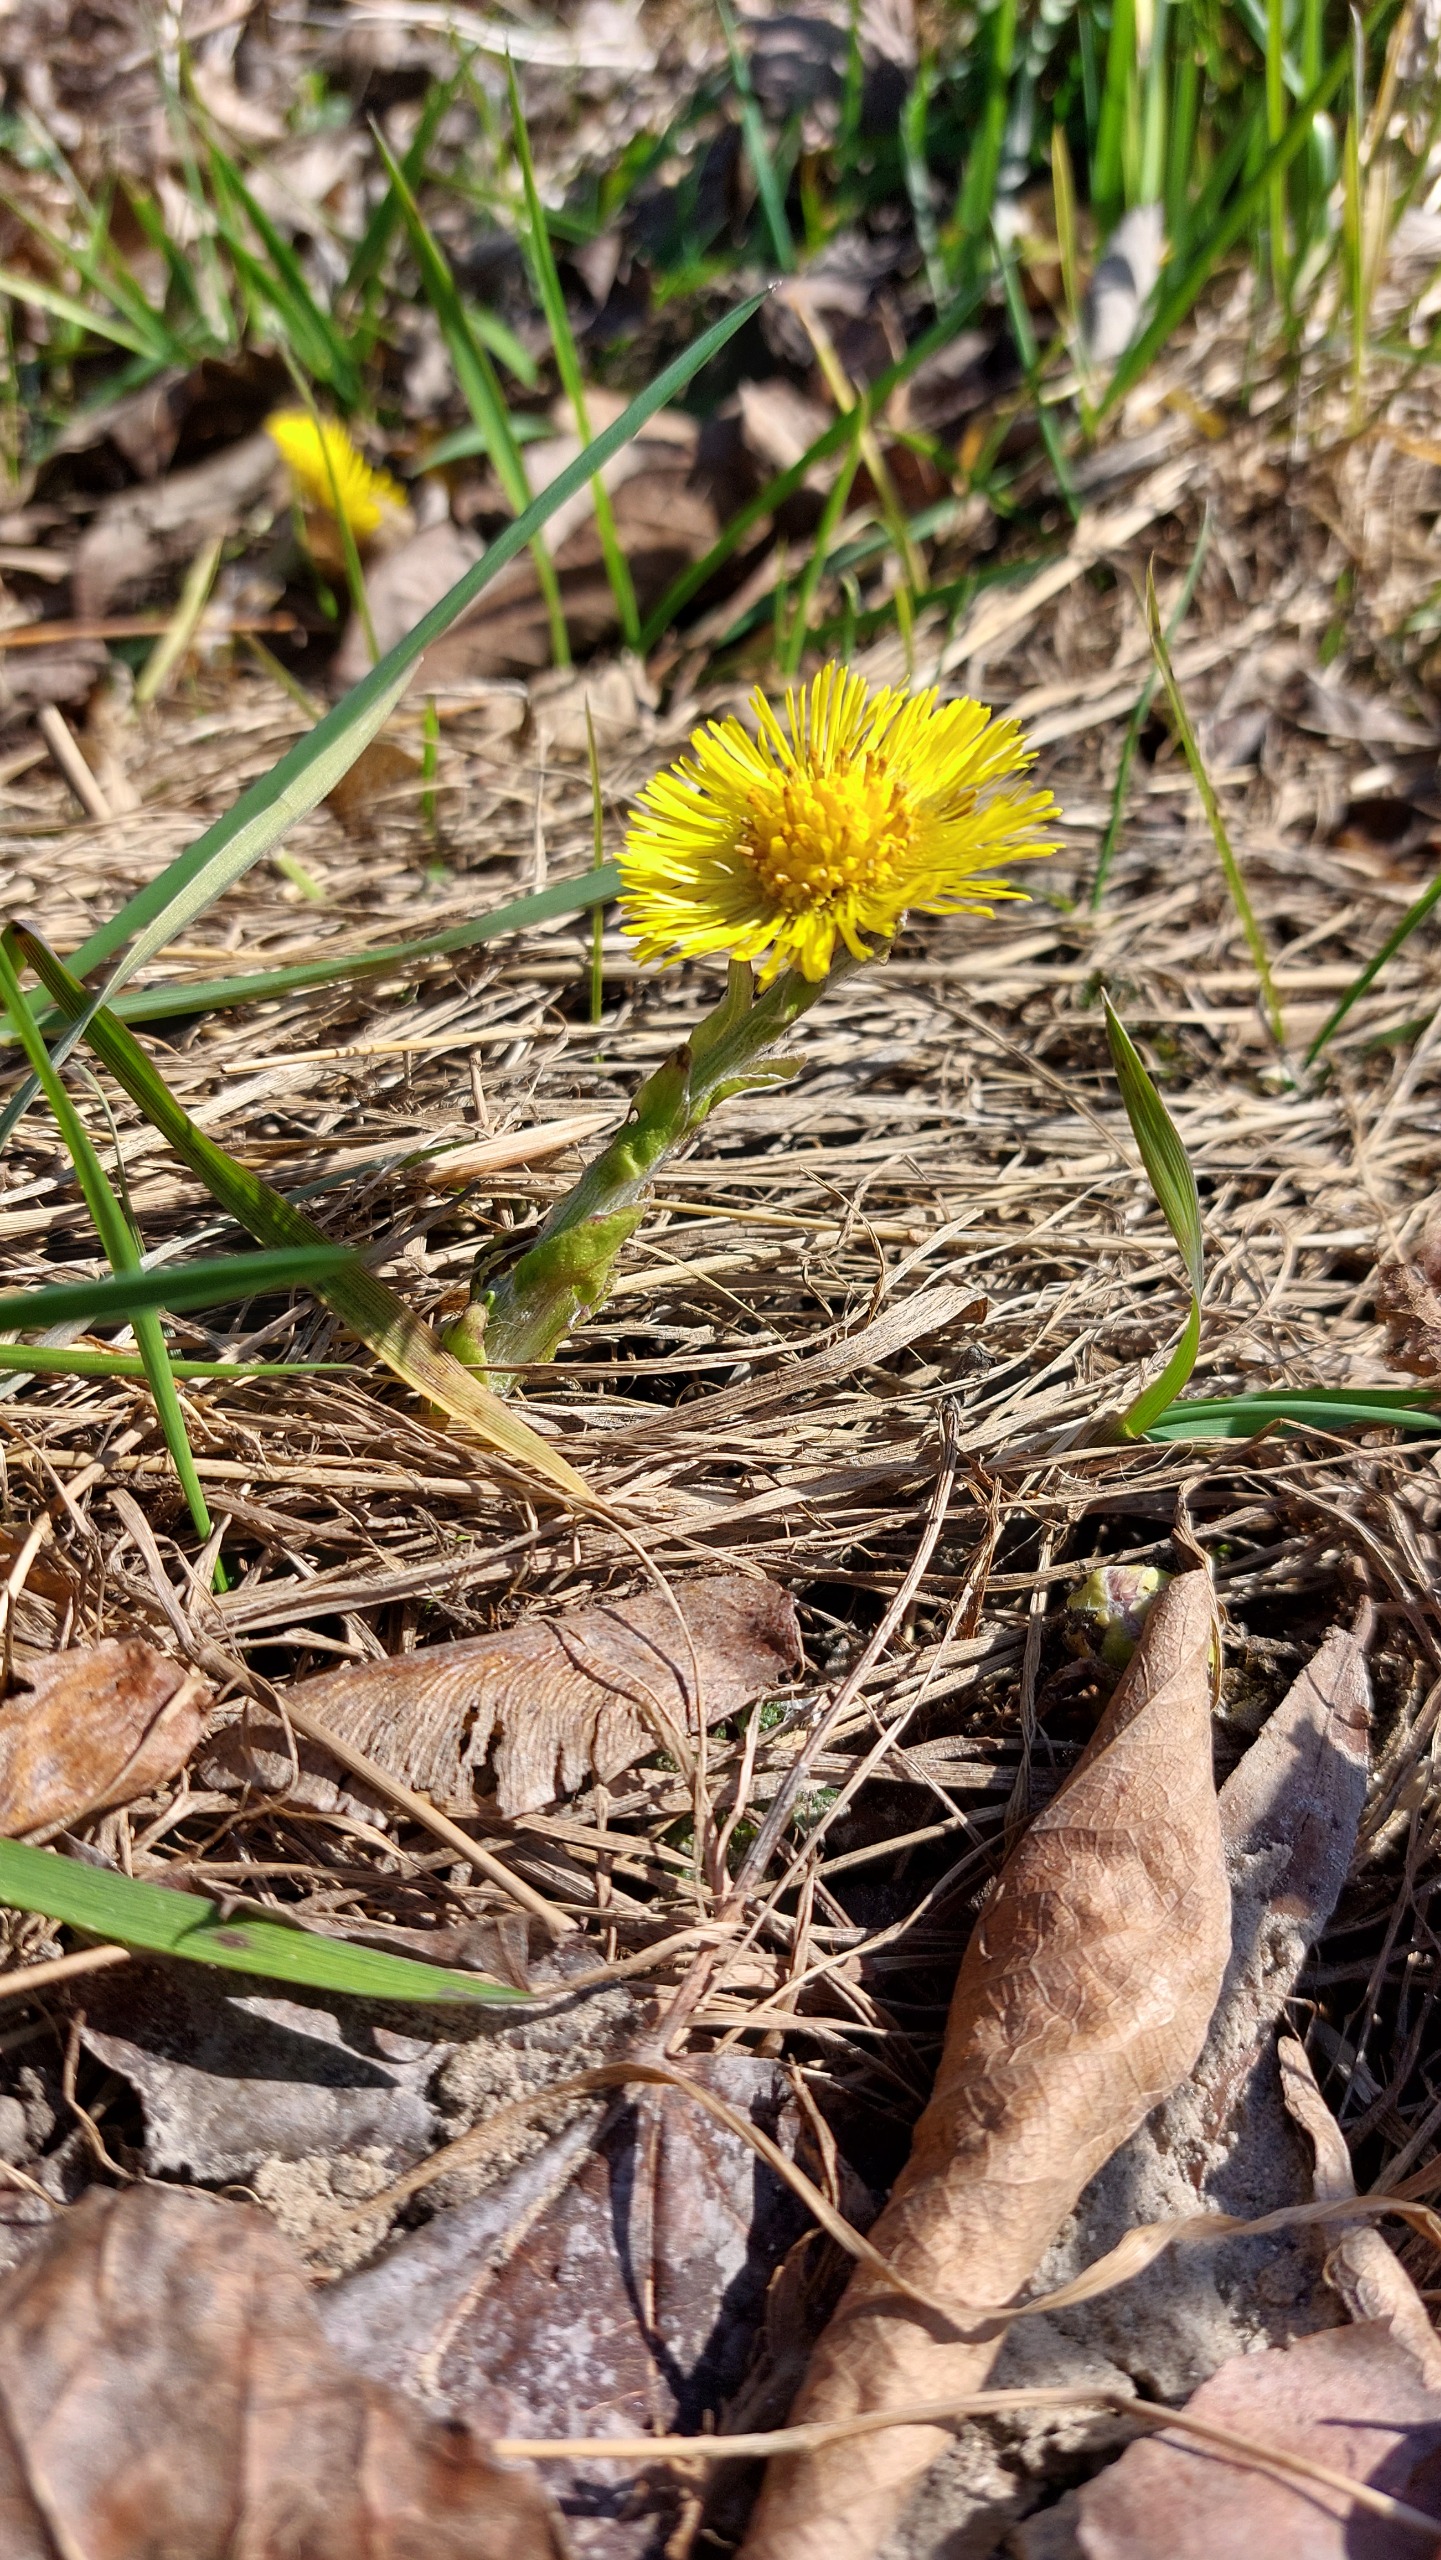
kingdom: Plantae
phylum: Tracheophyta
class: Magnoliopsida
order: Asterales
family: Asteraceae
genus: Tussilago
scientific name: Tussilago farfara
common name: Følfod
